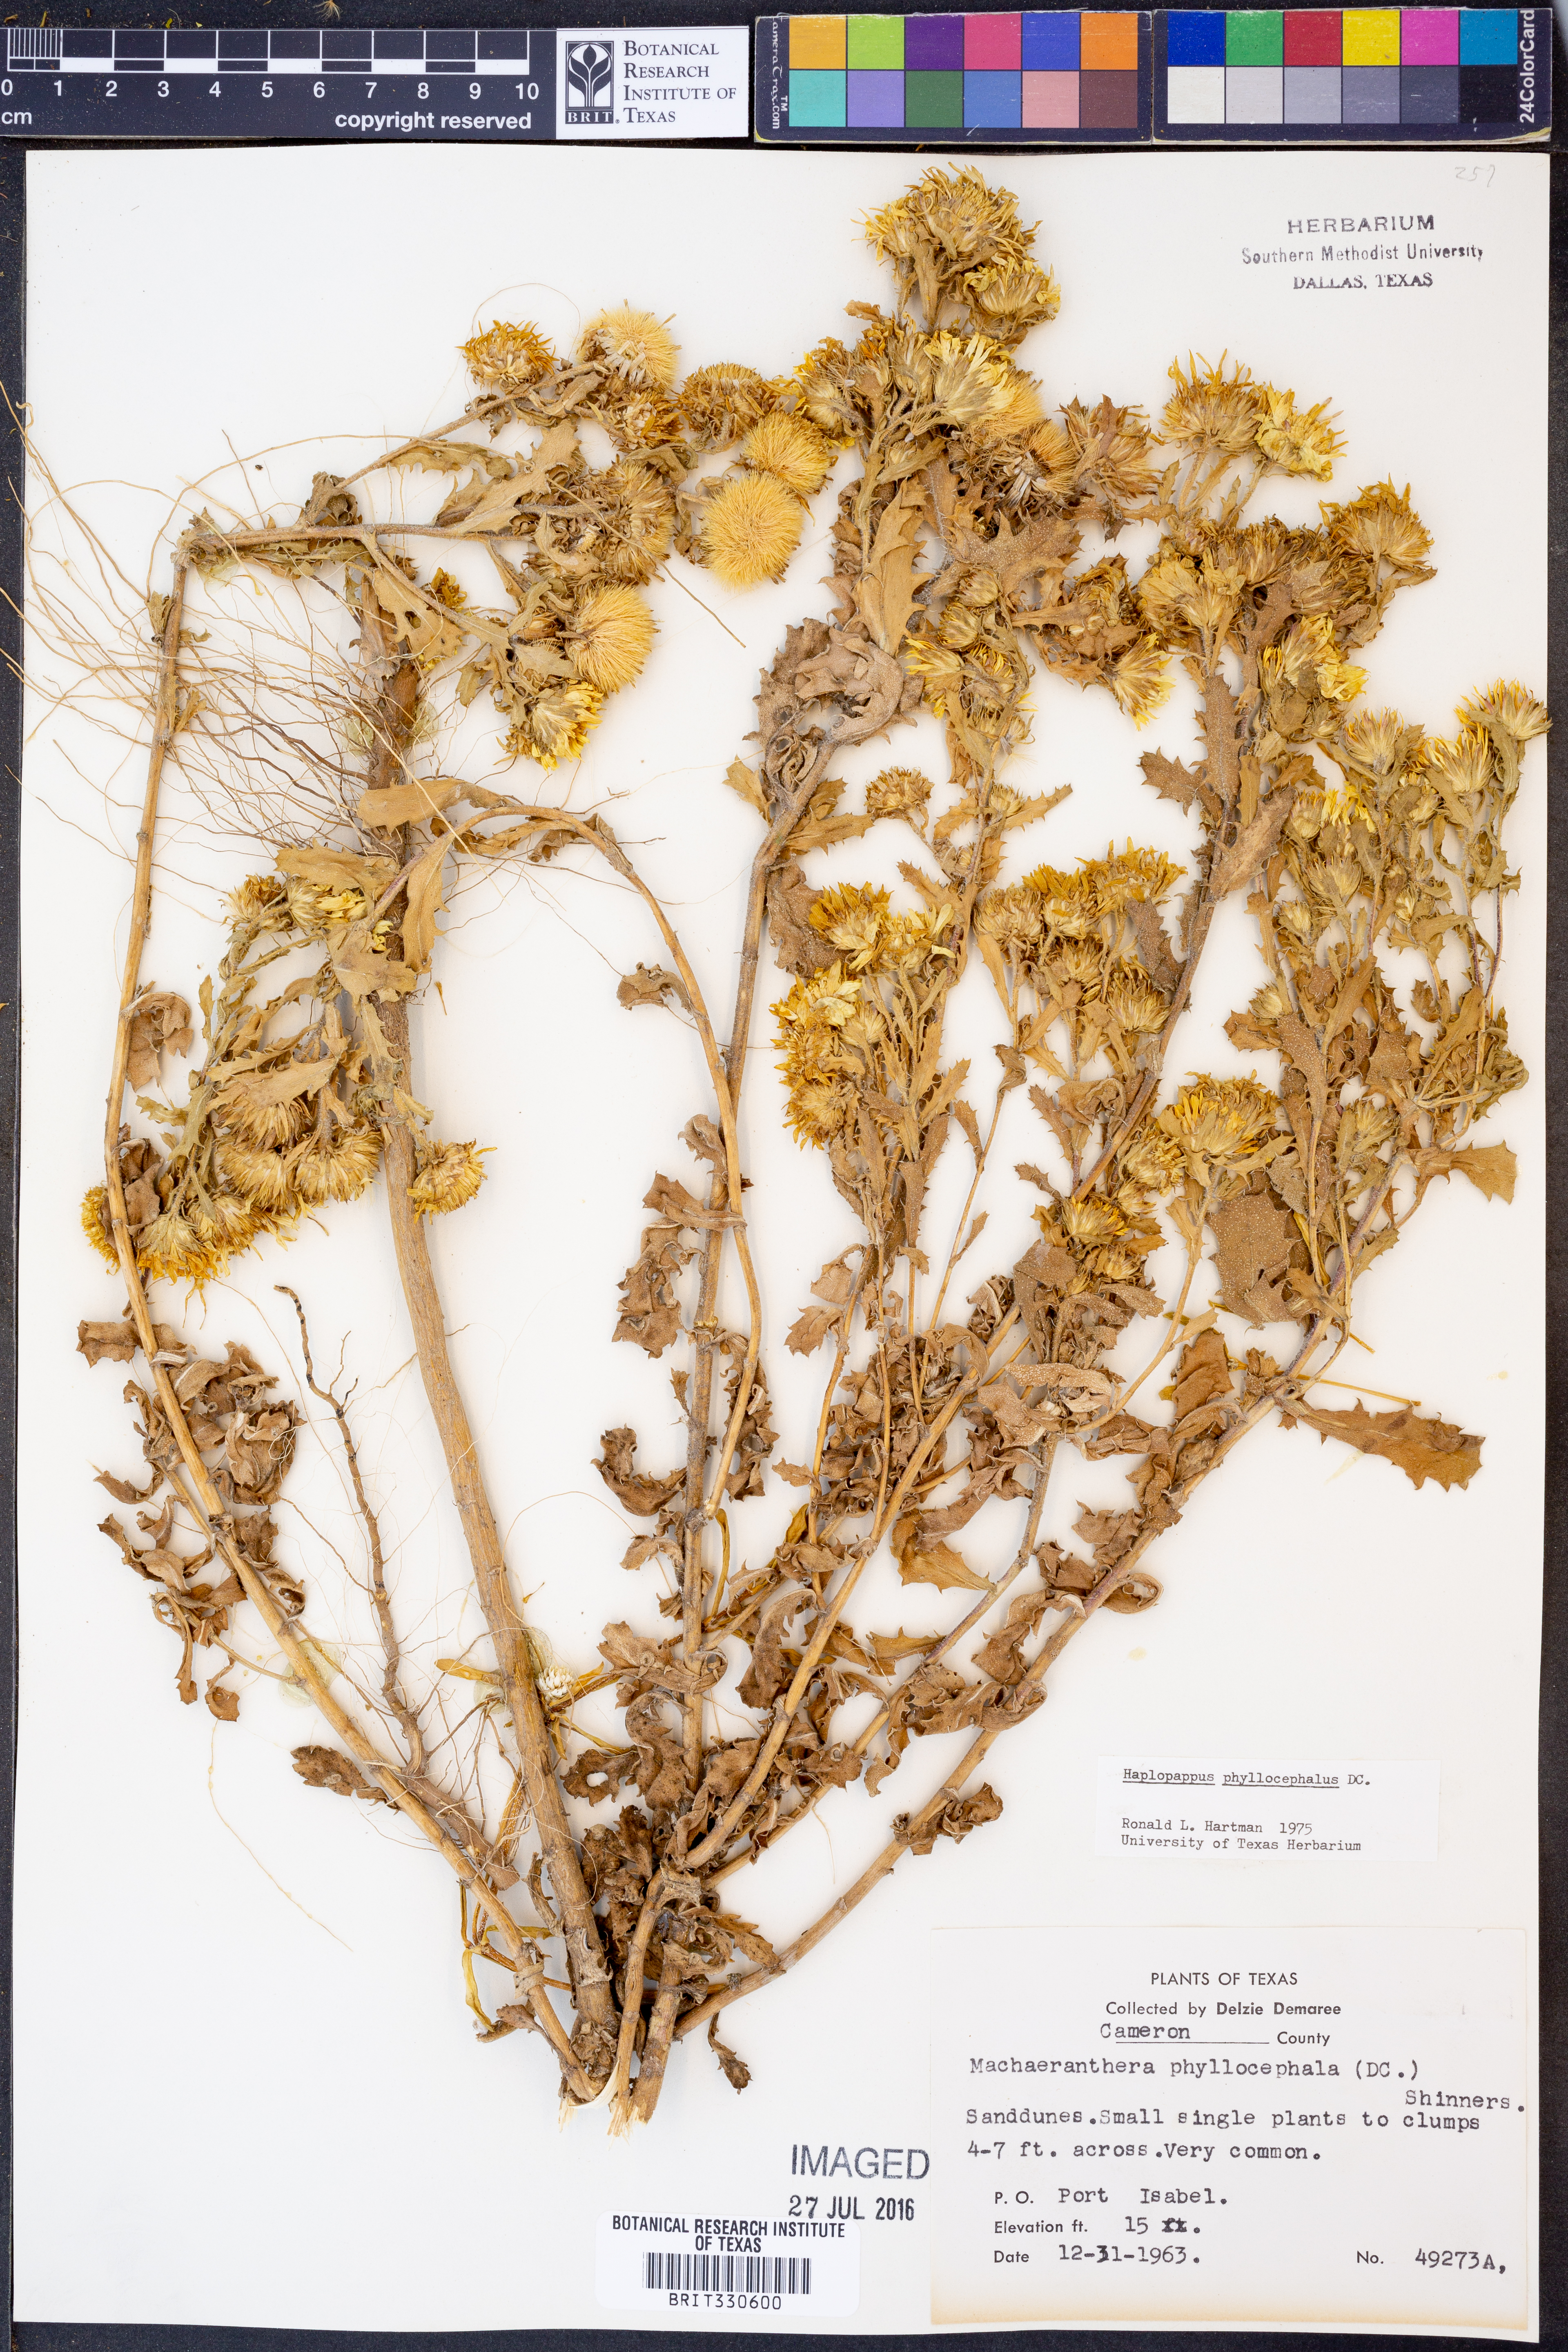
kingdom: Plantae
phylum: Tracheophyta
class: Magnoliopsida
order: Asterales
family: Asteraceae
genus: Rayjacksonia
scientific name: Rayjacksonia phyllocephala
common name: Gulf coast camphor daisy
